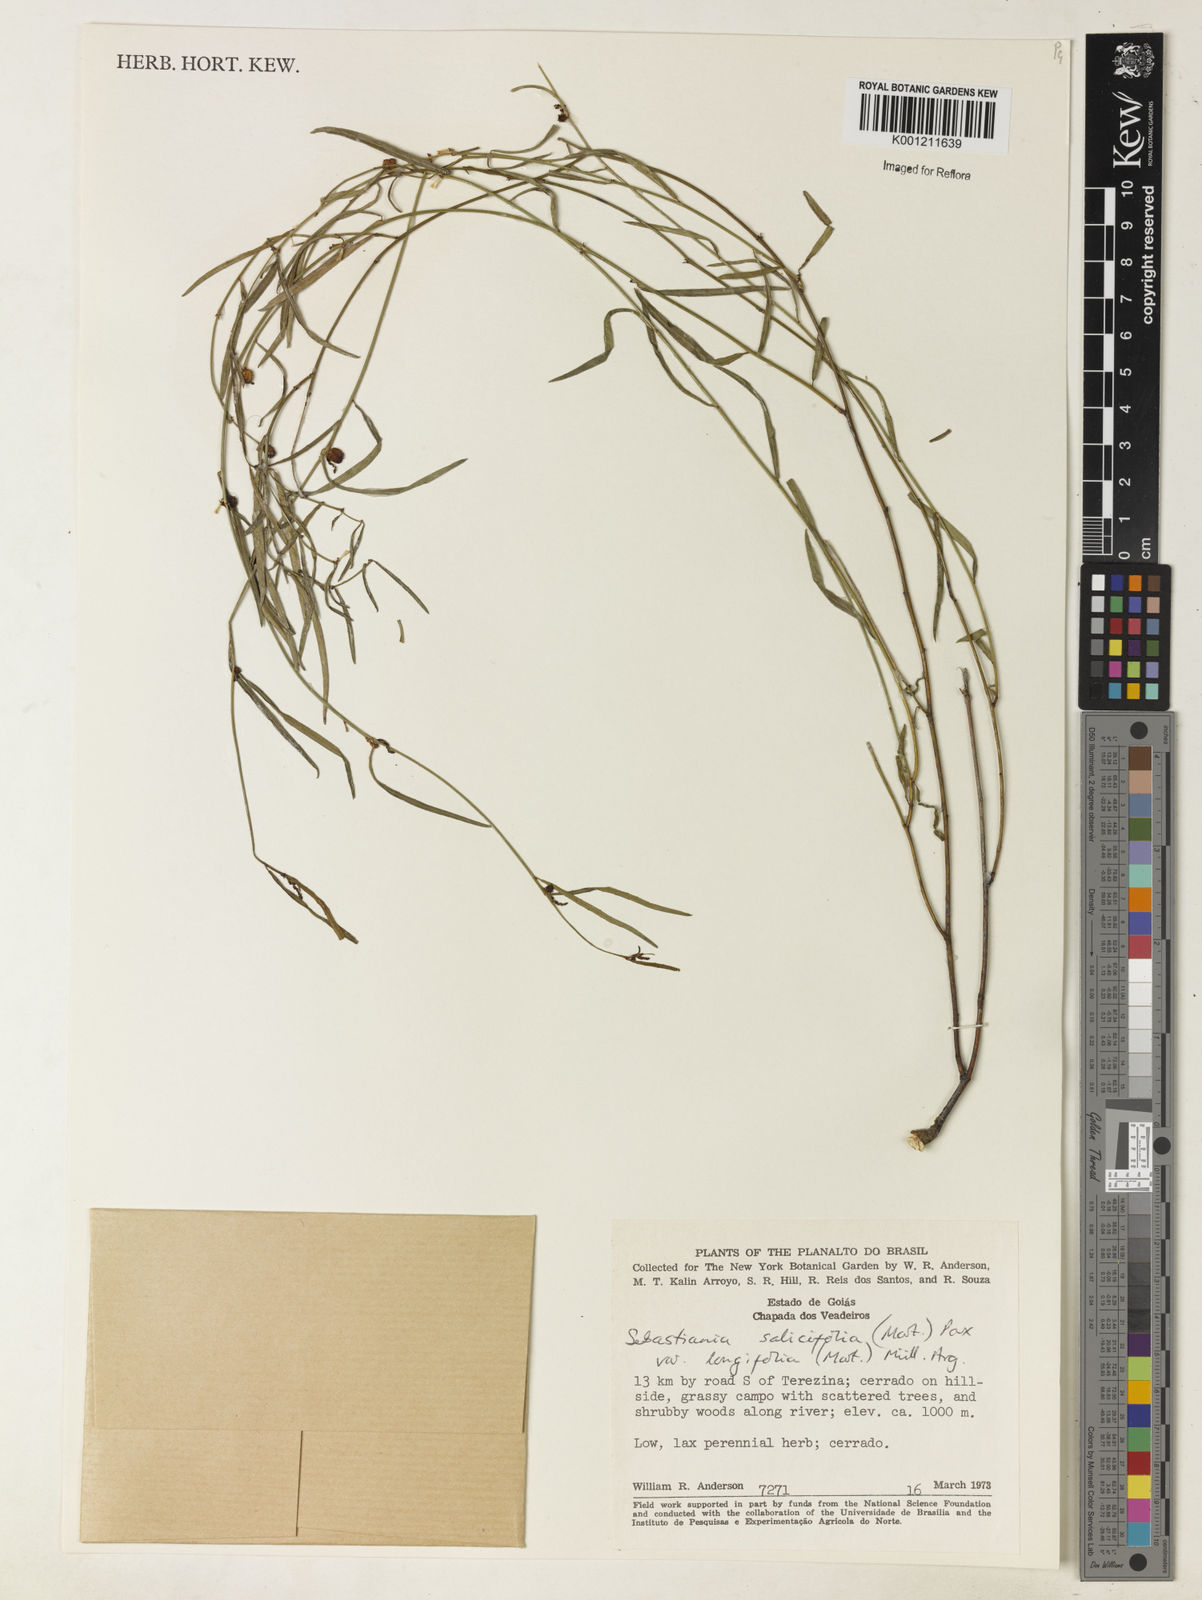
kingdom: Plantae
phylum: Tracheophyta
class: Magnoliopsida
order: Malpighiales
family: Euphorbiaceae
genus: Microstachys
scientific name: Microstachys
